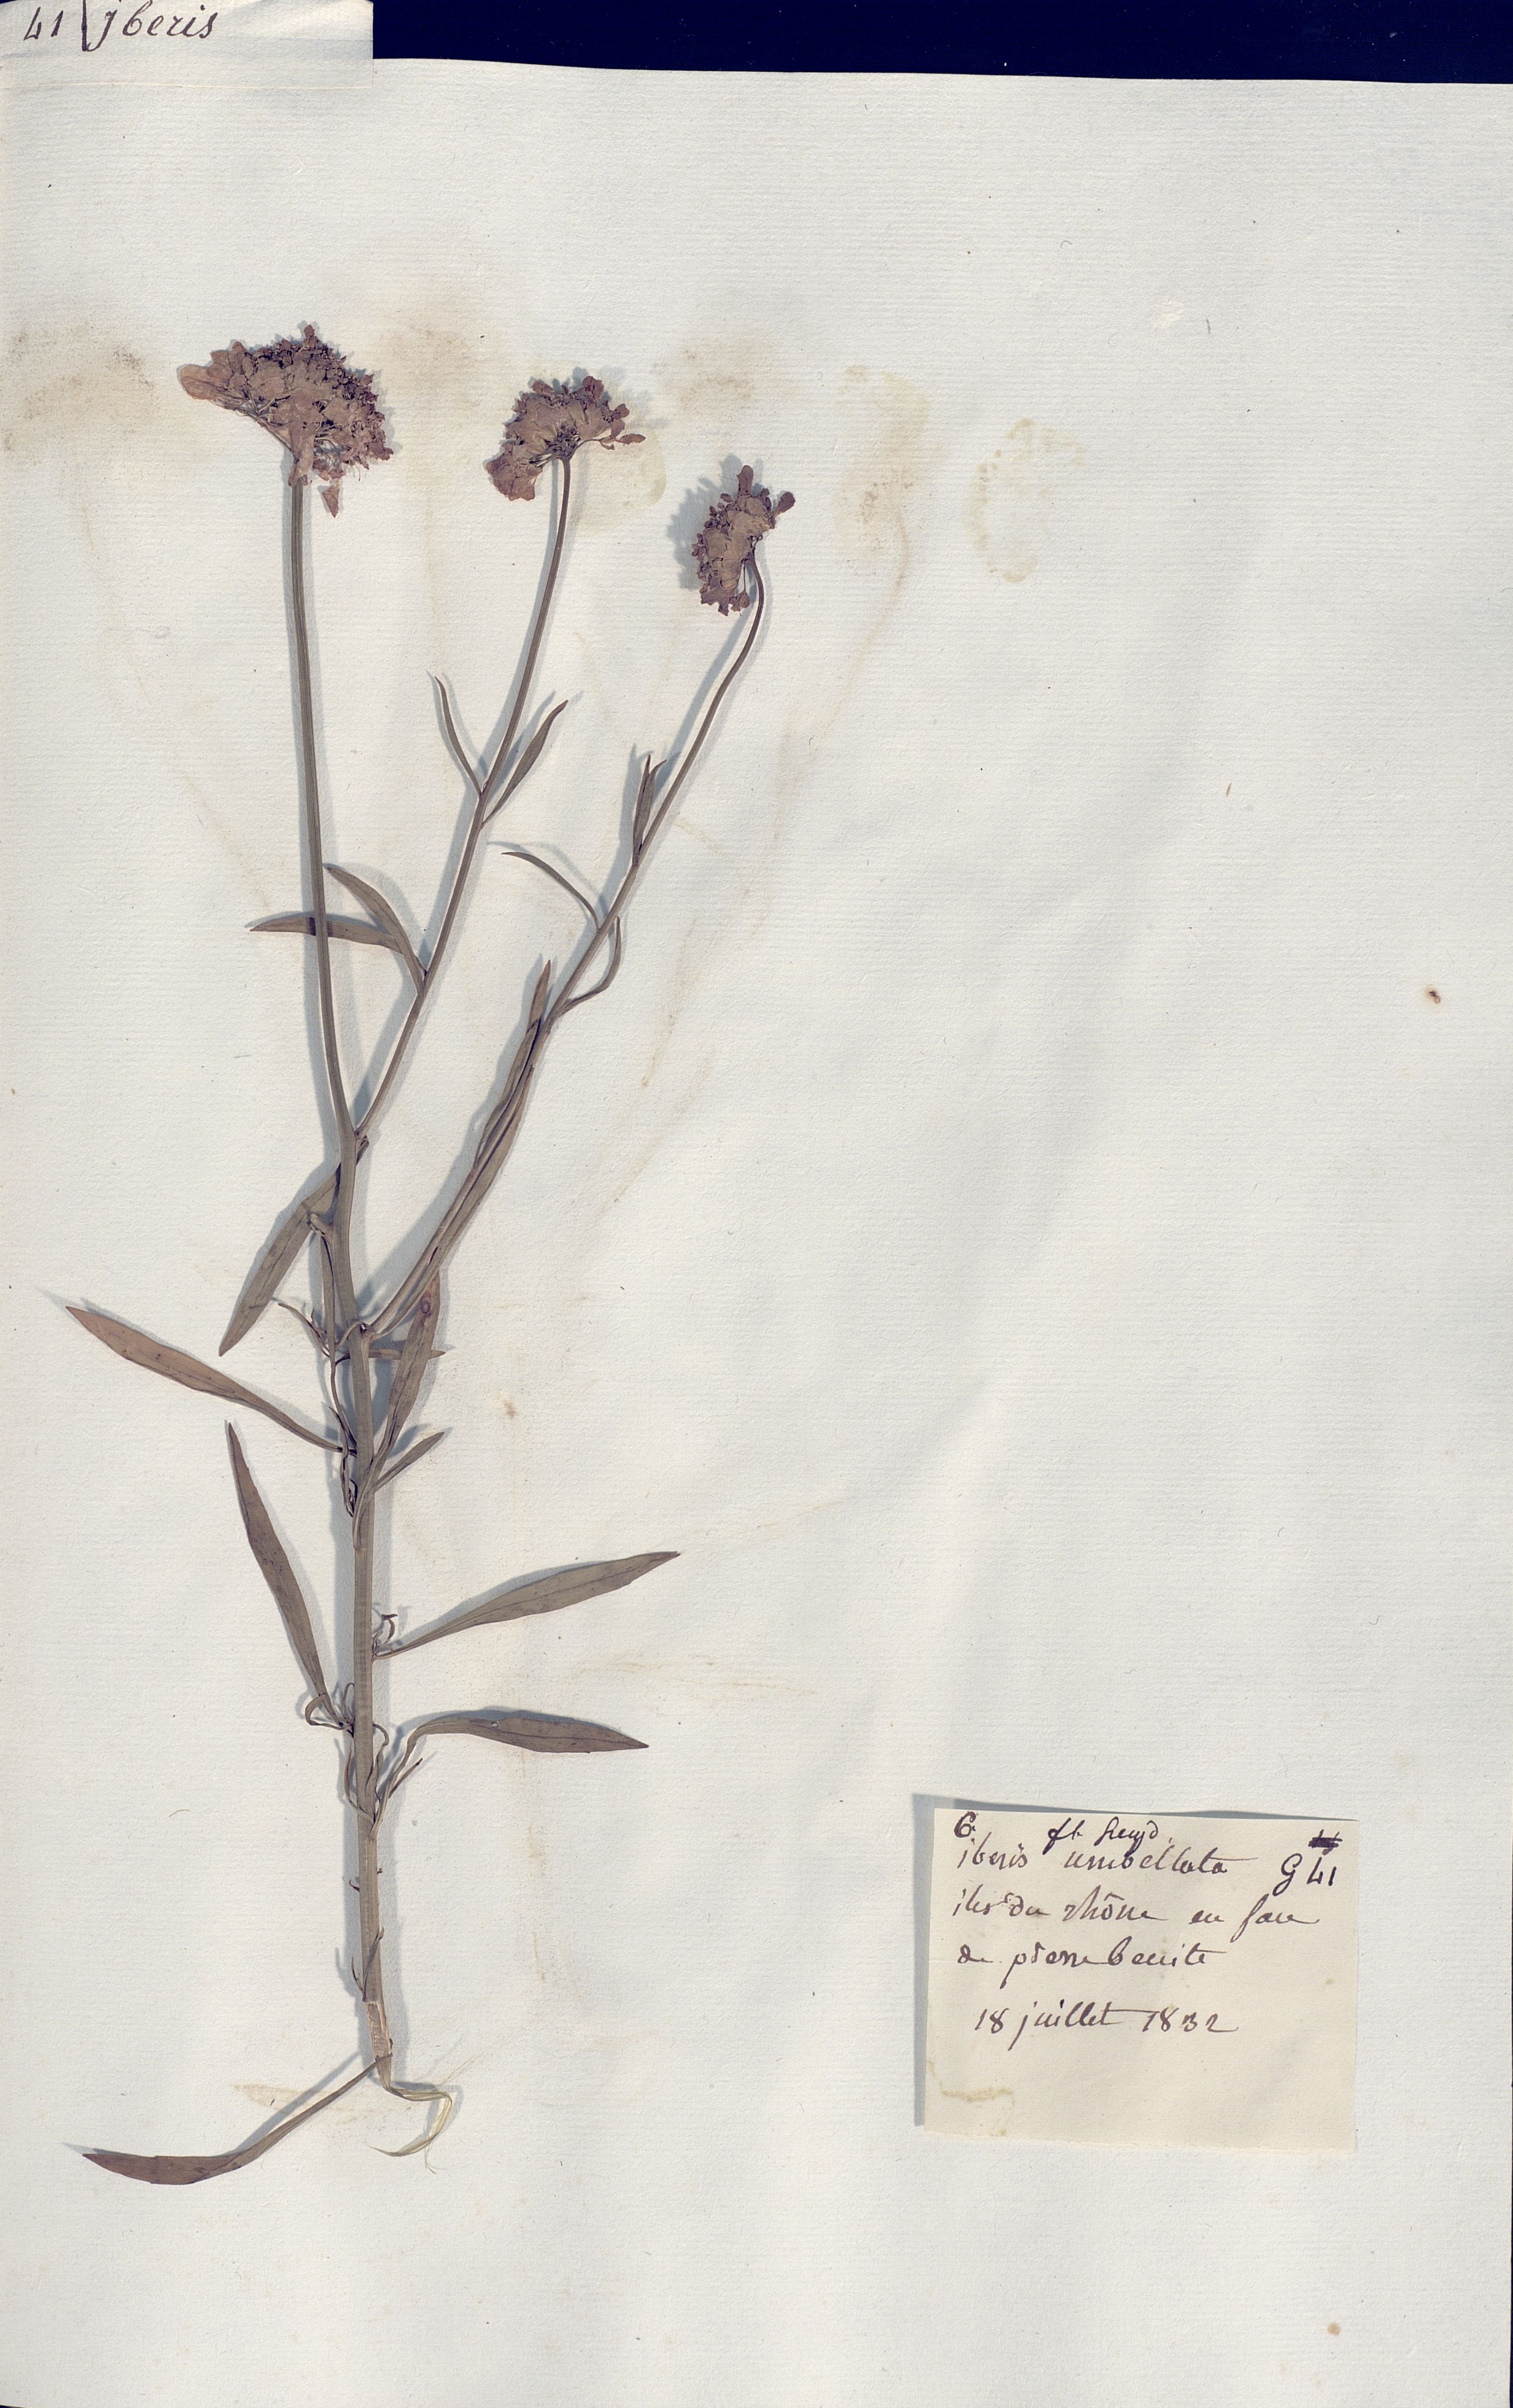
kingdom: Plantae
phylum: Tracheophyta
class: Magnoliopsida
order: Brassicales
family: Brassicaceae
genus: Iberis
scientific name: Iberis umbellata
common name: Globe candytuft
